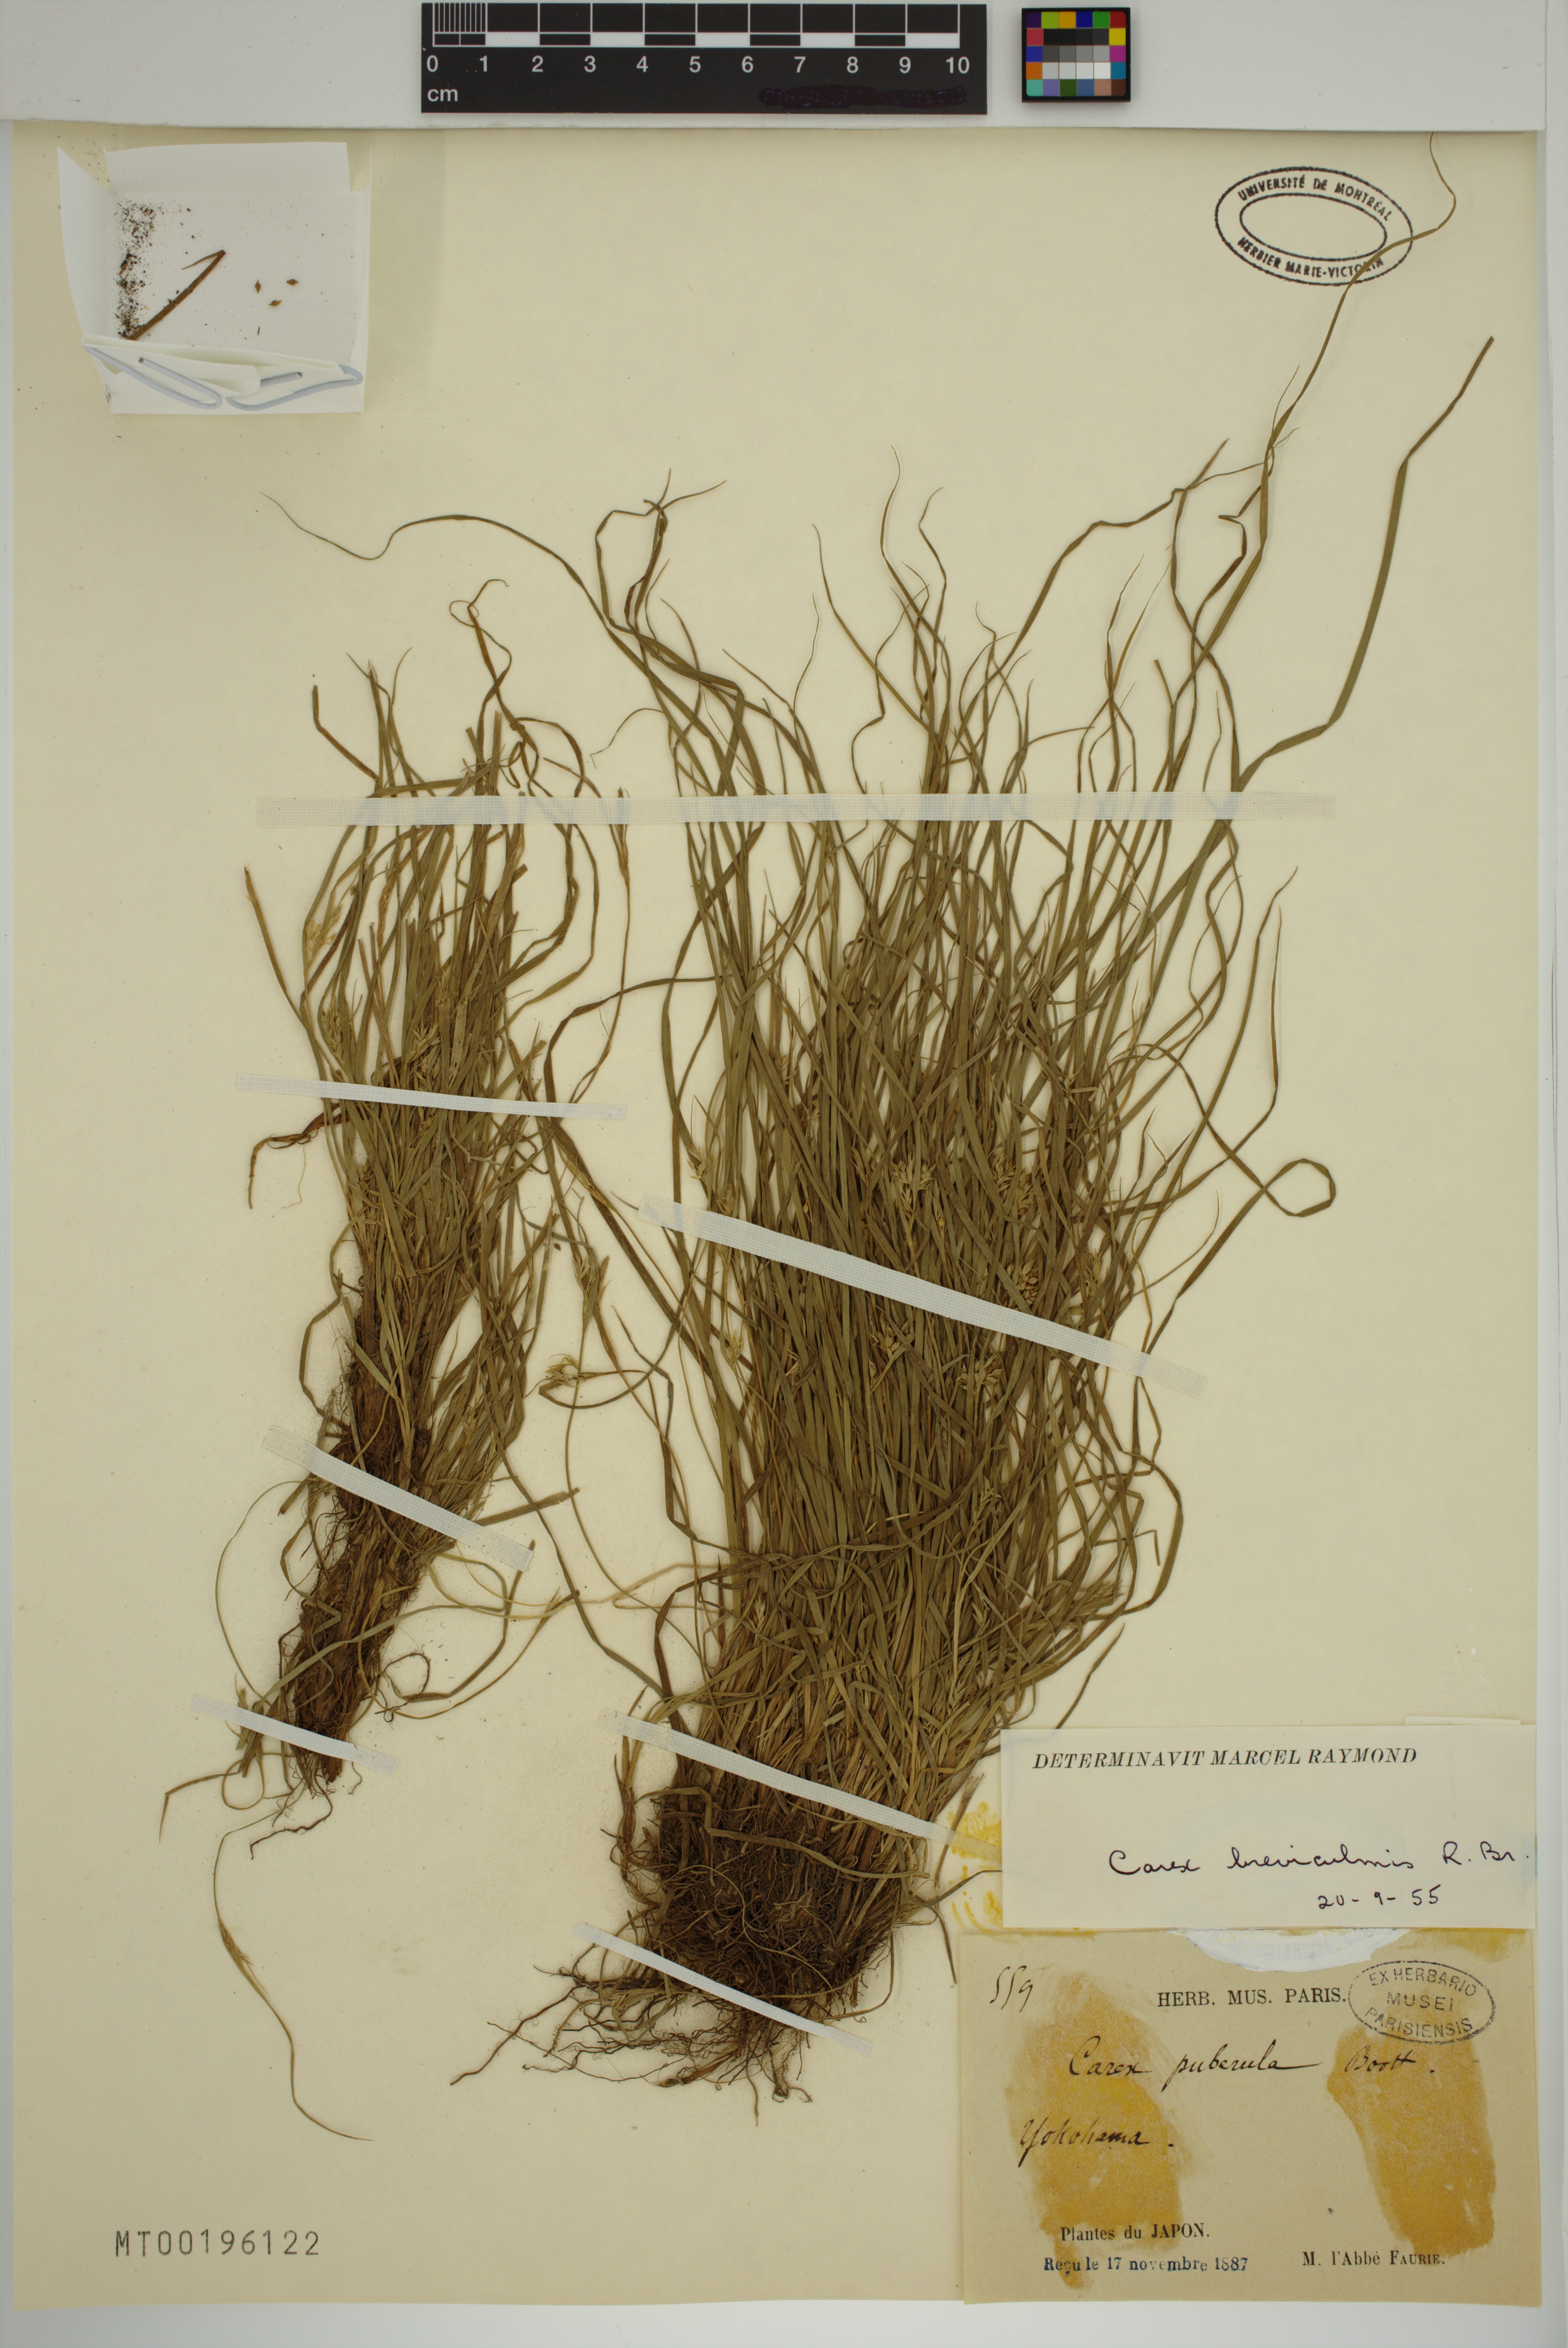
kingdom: Plantae
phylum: Tracheophyta
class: Liliopsida
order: Poales
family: Cyperaceae
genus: Carex
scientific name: Carex breviculmis
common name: Asian shortstem sedge
